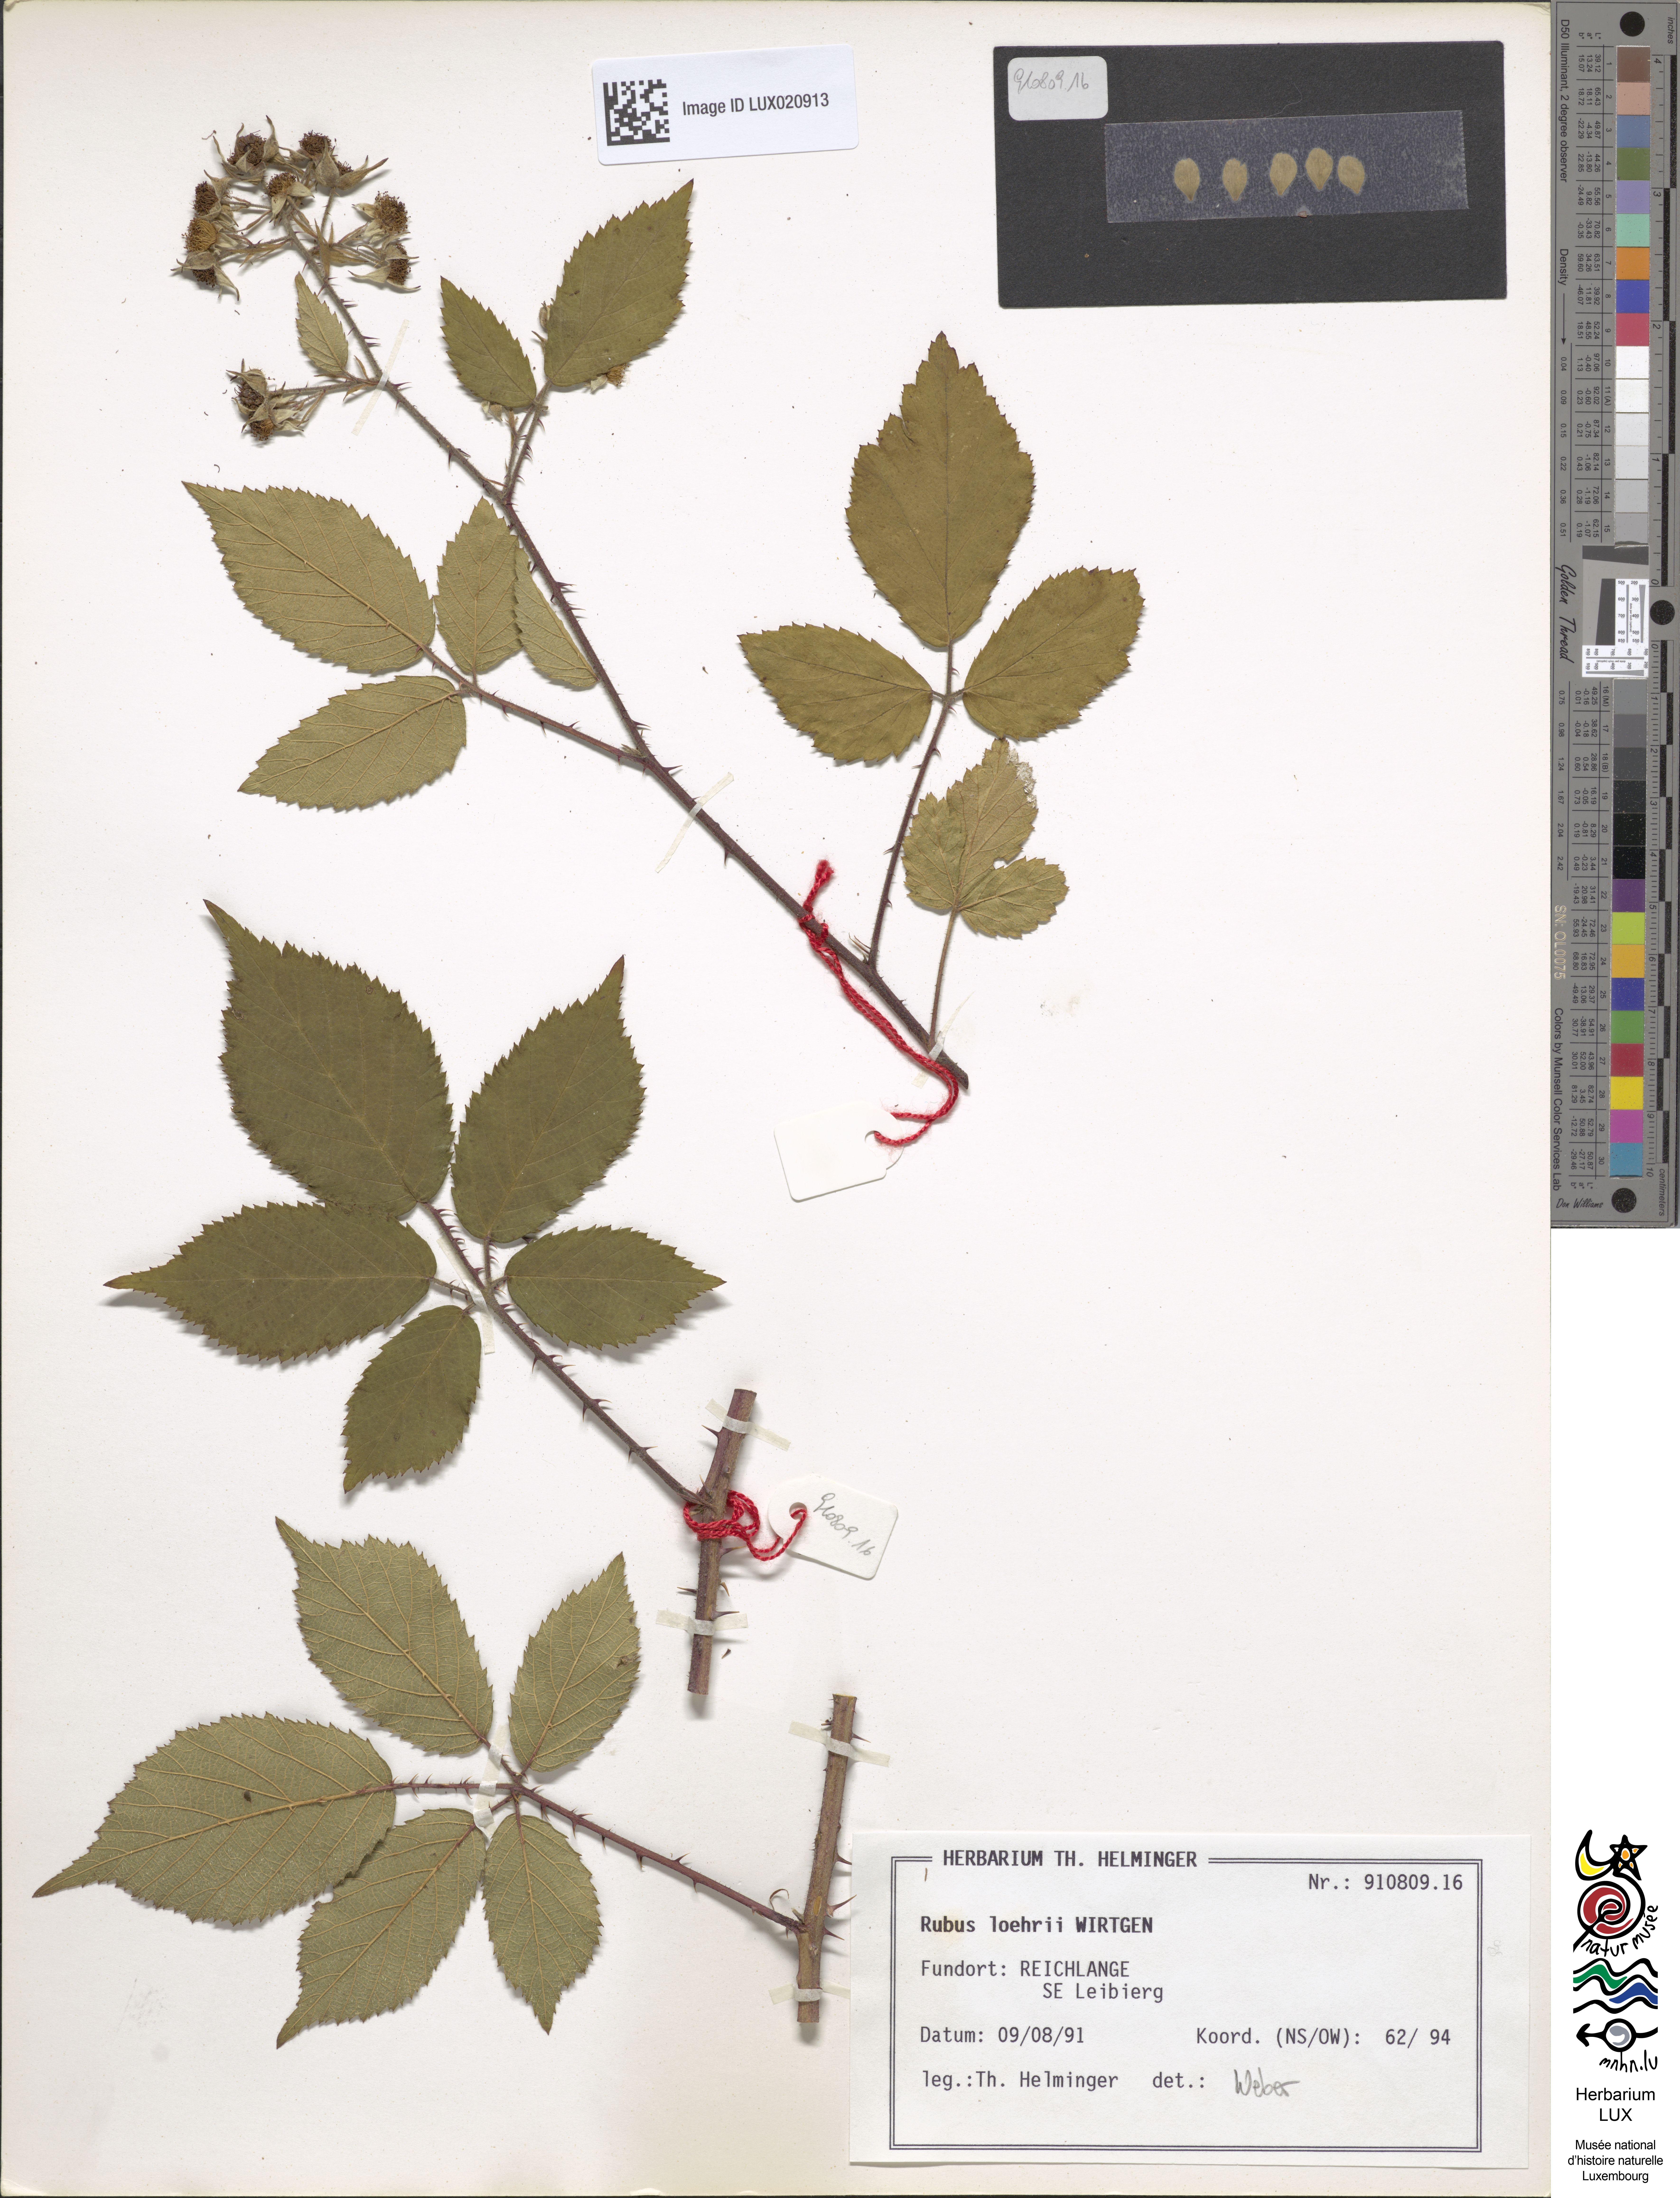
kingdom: Plantae
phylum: Tracheophyta
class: Magnoliopsida
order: Rosales
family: Rosaceae
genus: Rubus
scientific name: Rubus loehrii
